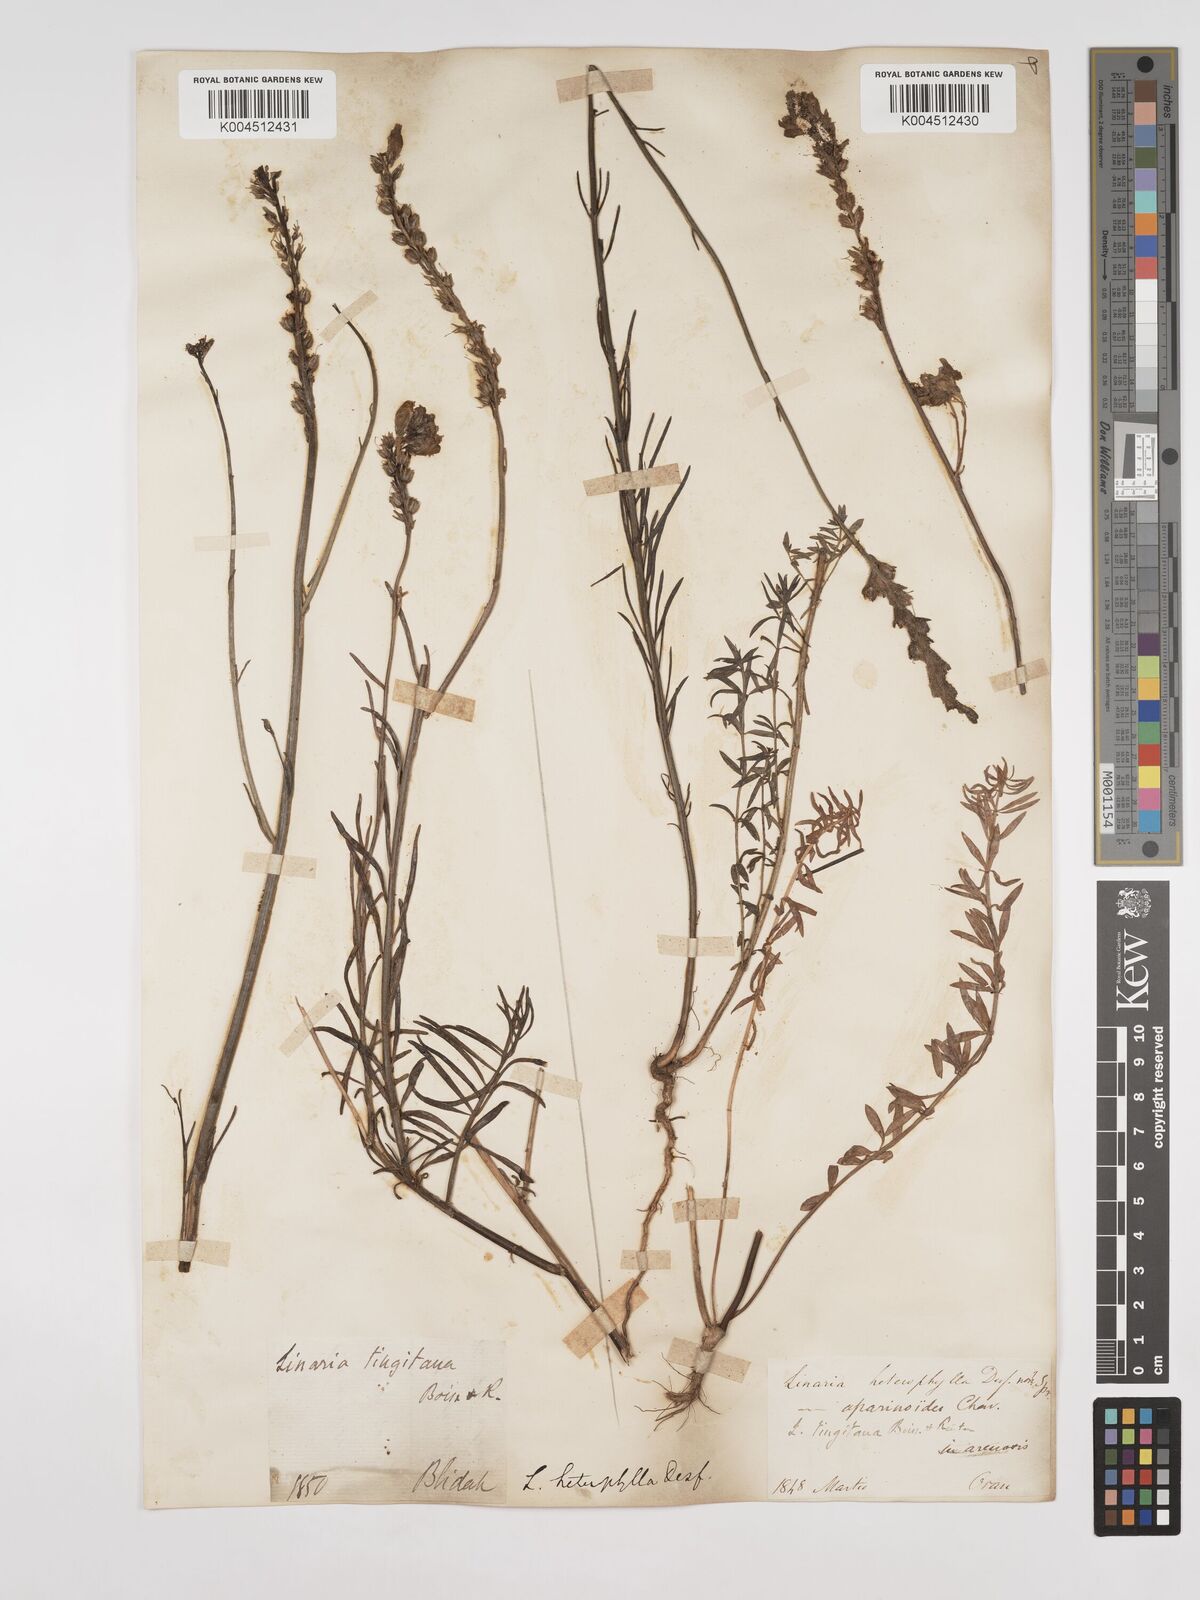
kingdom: Plantae
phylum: Tracheophyta
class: Magnoliopsida
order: Lamiales
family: Plantaginaceae
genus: Linaria
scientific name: Linaria multicaulis
